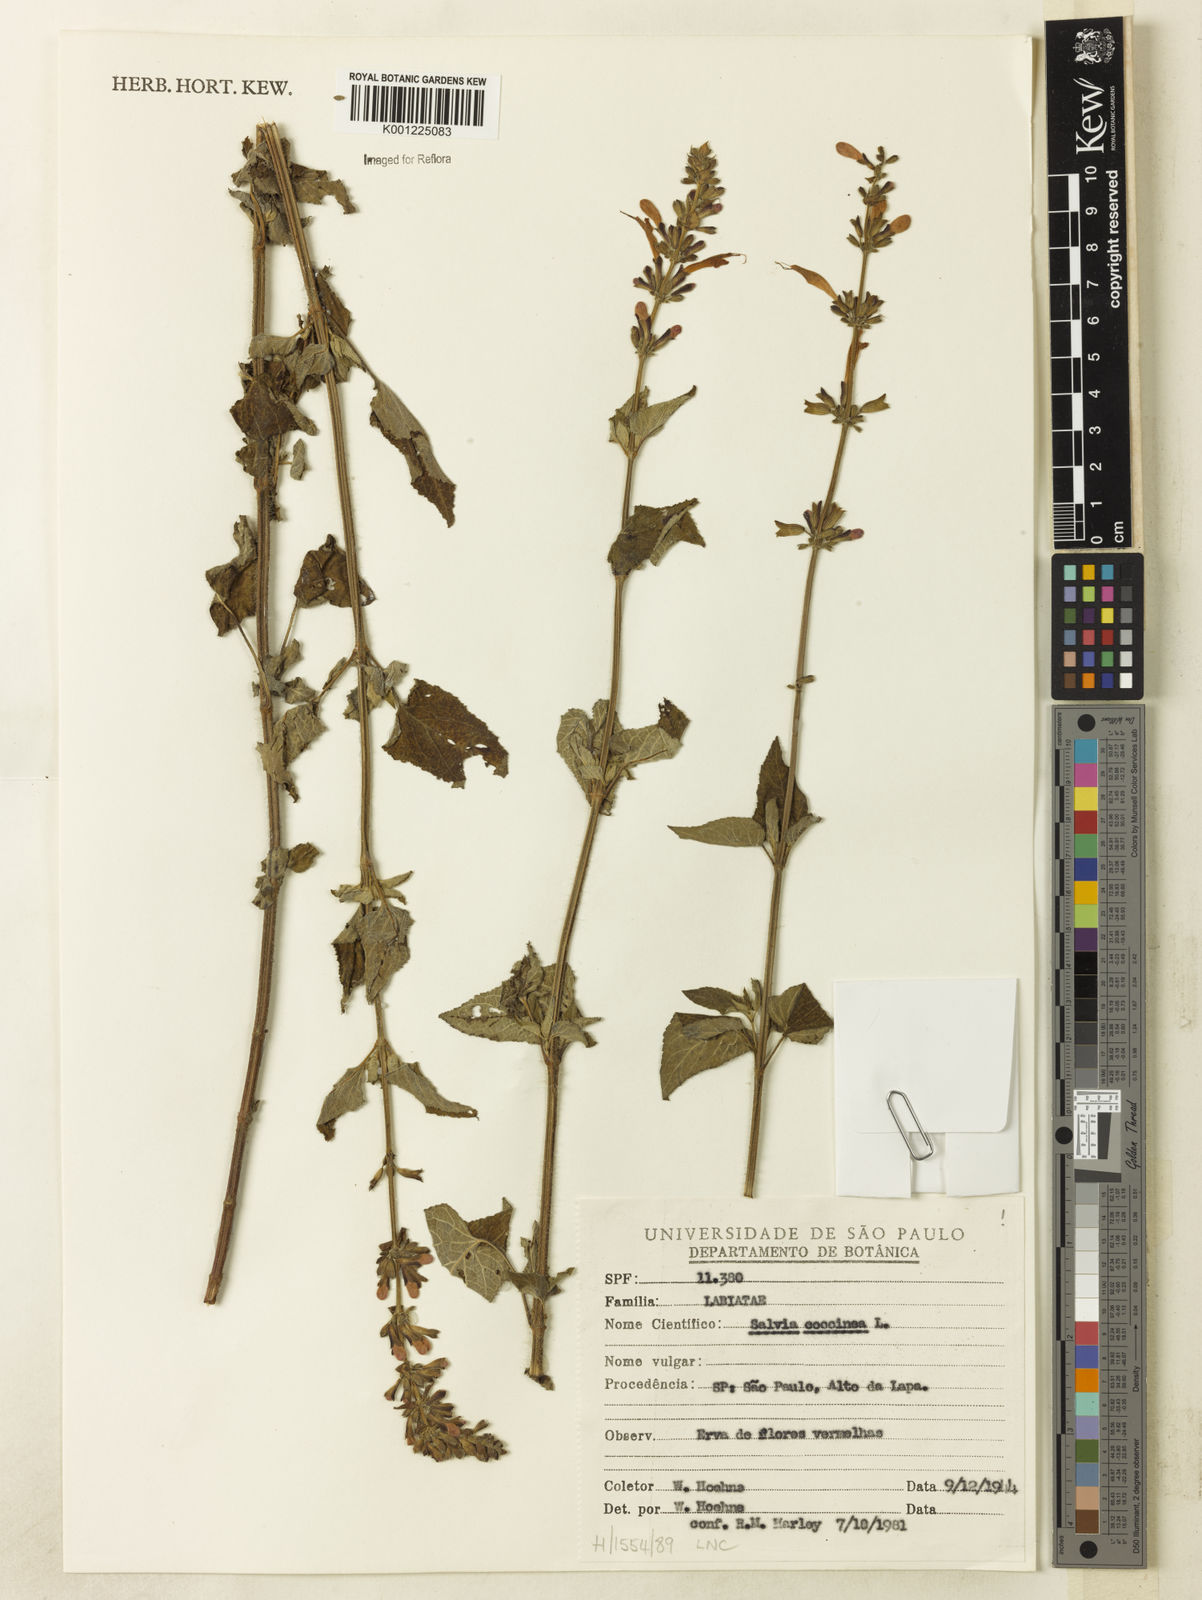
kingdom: Plantae
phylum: Tracheophyta
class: Magnoliopsida
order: Lamiales
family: Lamiaceae
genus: Salvia
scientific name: Salvia coccinea
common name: Blood sage
